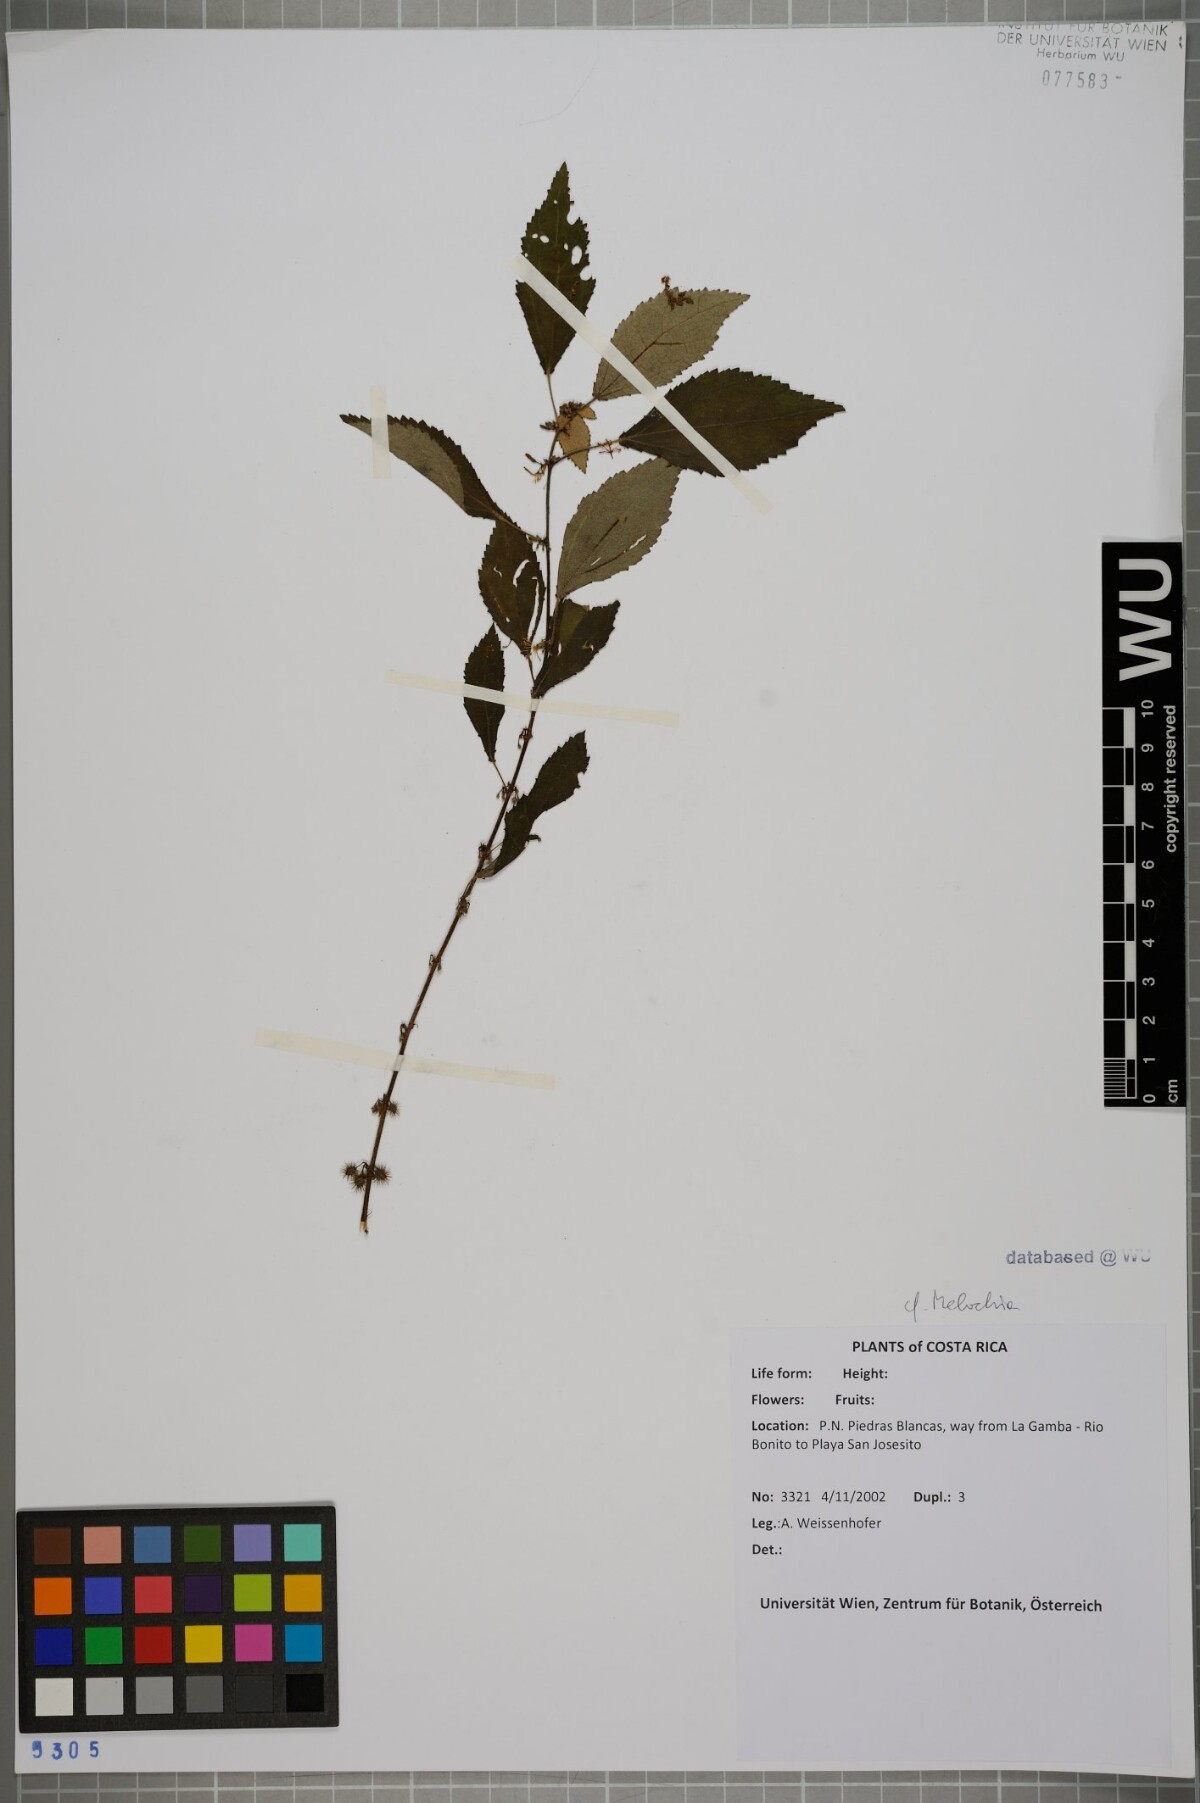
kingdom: Plantae
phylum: Tracheophyta
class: Magnoliopsida
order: Malvales
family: Malvaceae
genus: Melochia
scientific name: Melochia
